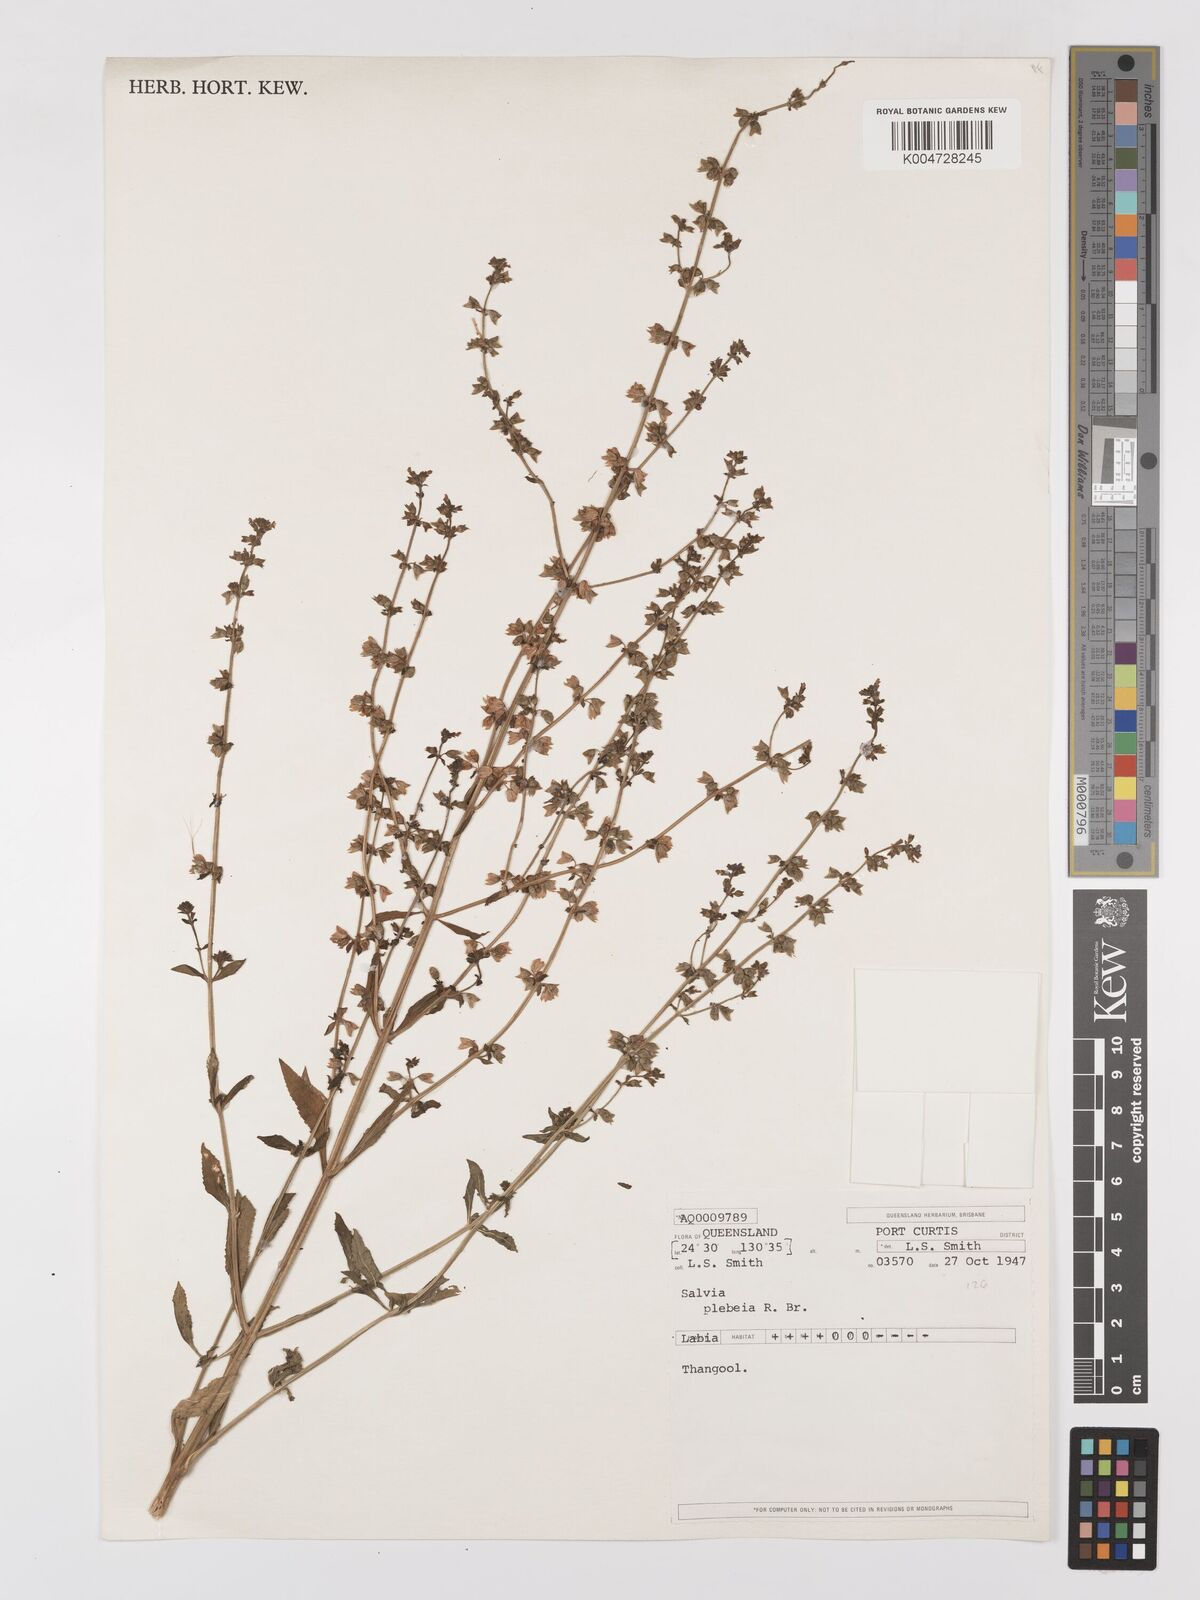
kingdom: Plantae
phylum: Tracheophyta
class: Magnoliopsida
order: Lamiales
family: Lamiaceae
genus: Salvia
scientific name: Salvia plebeia
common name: Australian sage
